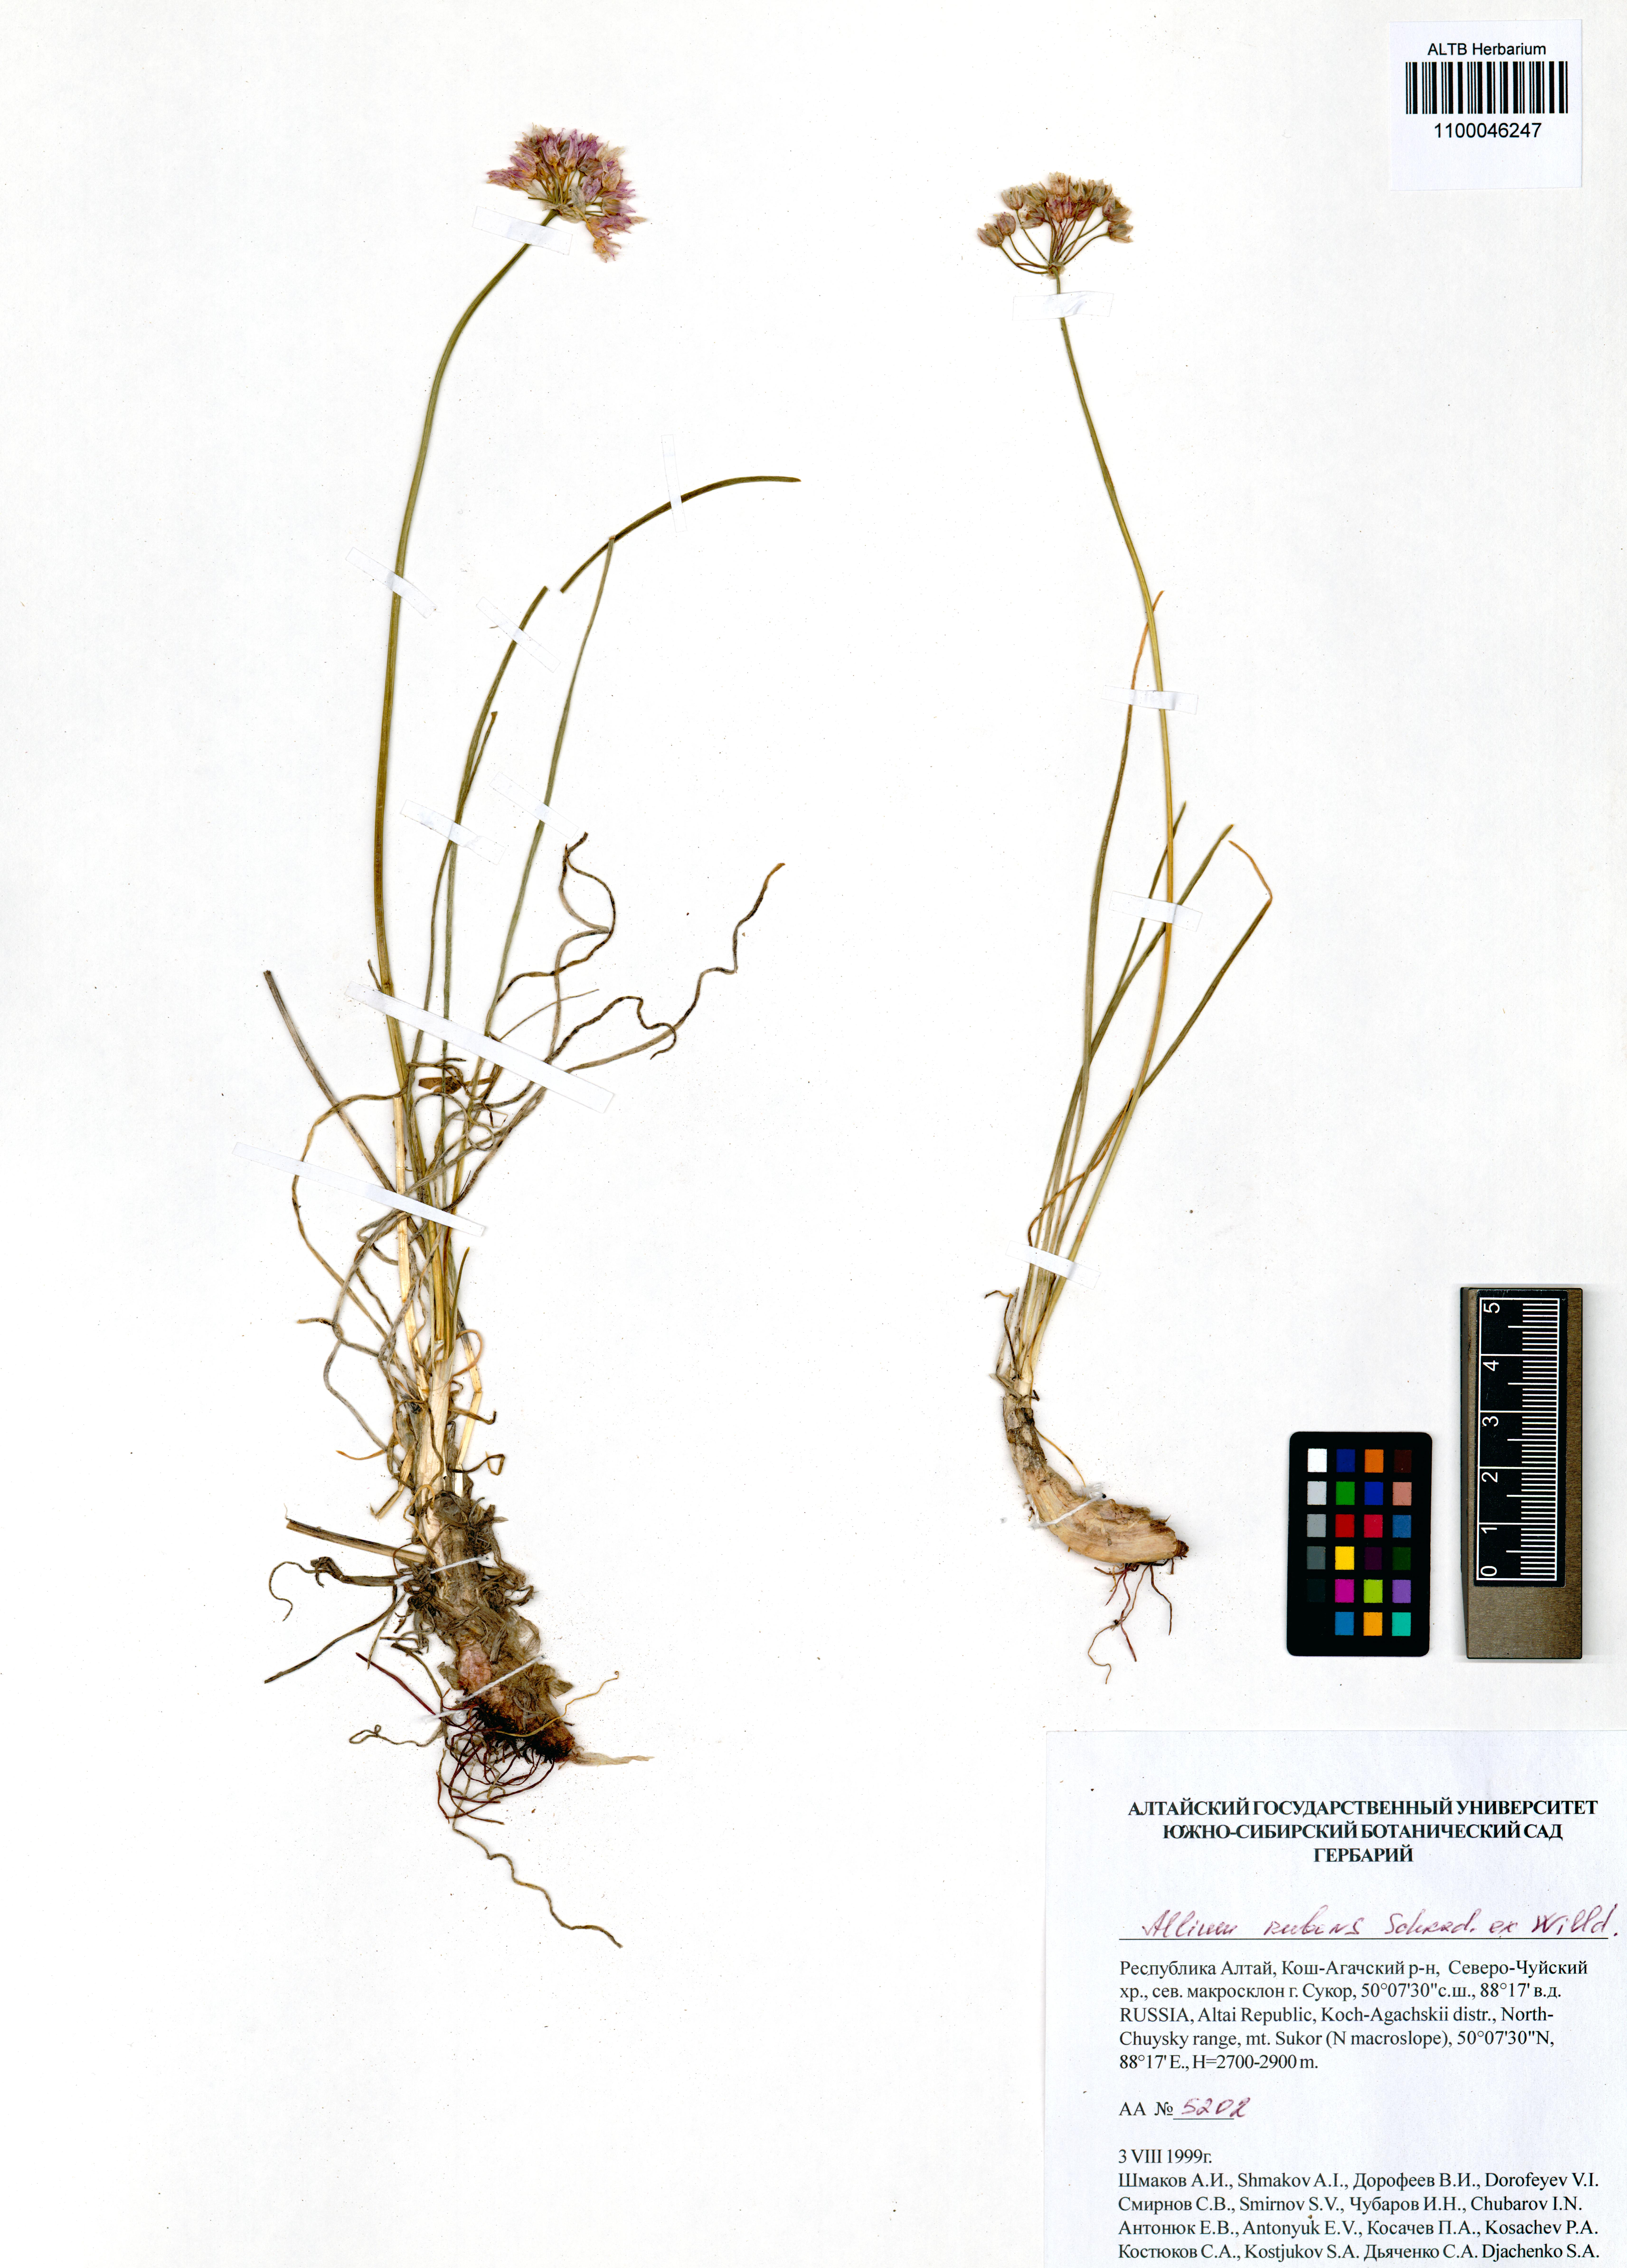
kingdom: Plantae
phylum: Tracheophyta
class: Liliopsida
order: Asparagales
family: Amaryllidaceae
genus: Allium
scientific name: Allium rubens
